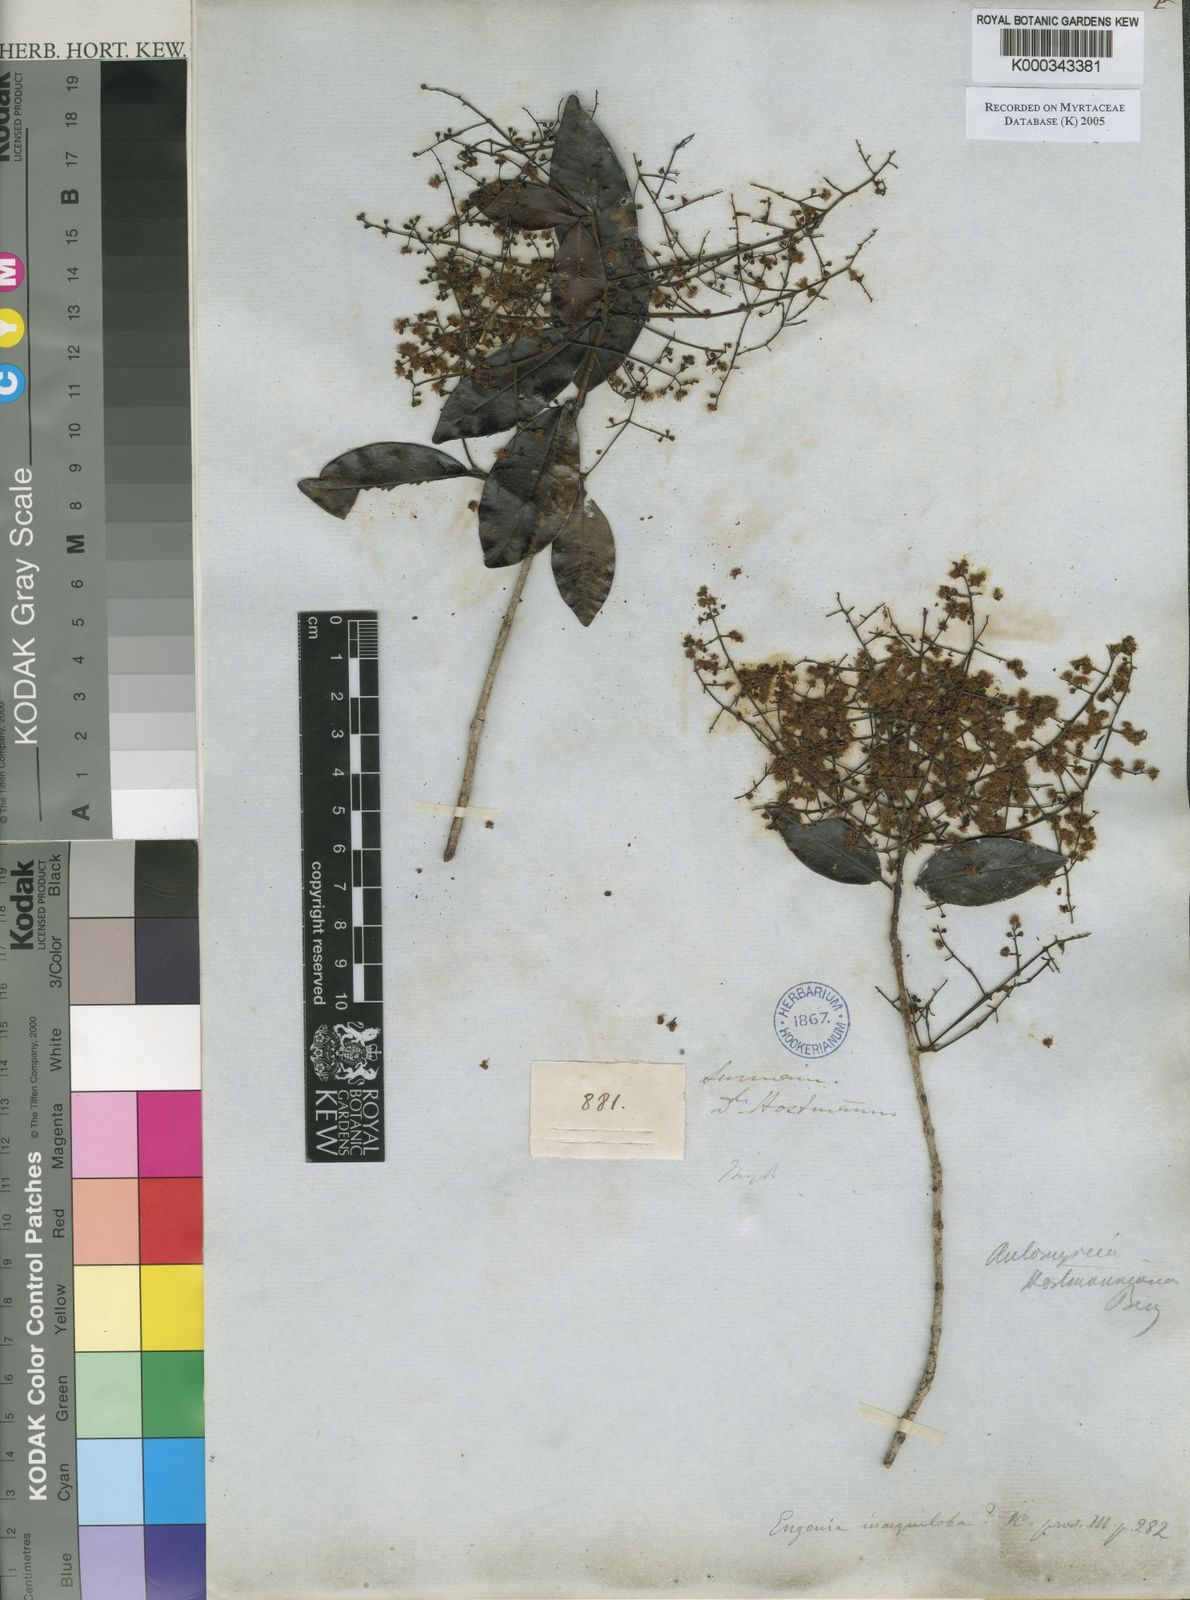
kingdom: Plantae
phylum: Tracheophyta
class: Magnoliopsida
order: Myrtales
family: Myrtaceae
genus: Myrcia
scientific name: Myrcia amazonica
